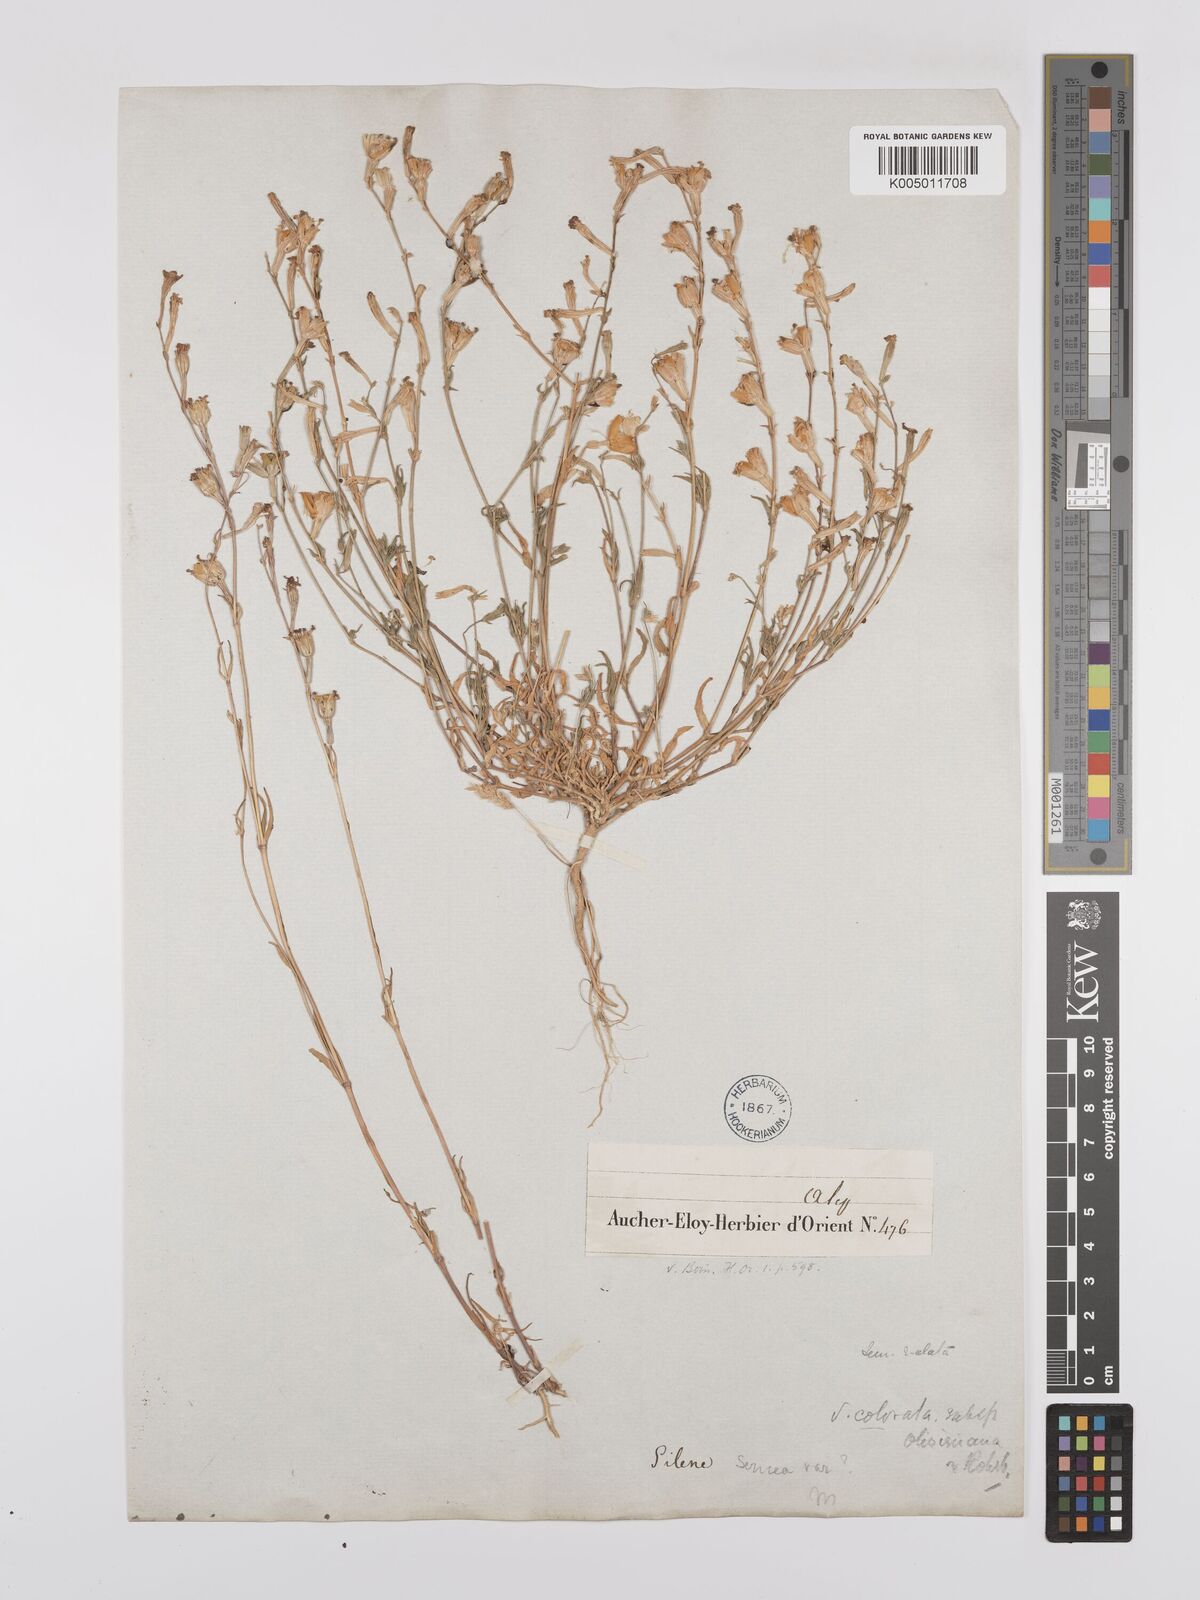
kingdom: Plantae
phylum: Tracheophyta
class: Magnoliopsida
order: Caryophyllales
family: Caryophyllaceae
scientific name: Caryophyllaceae
